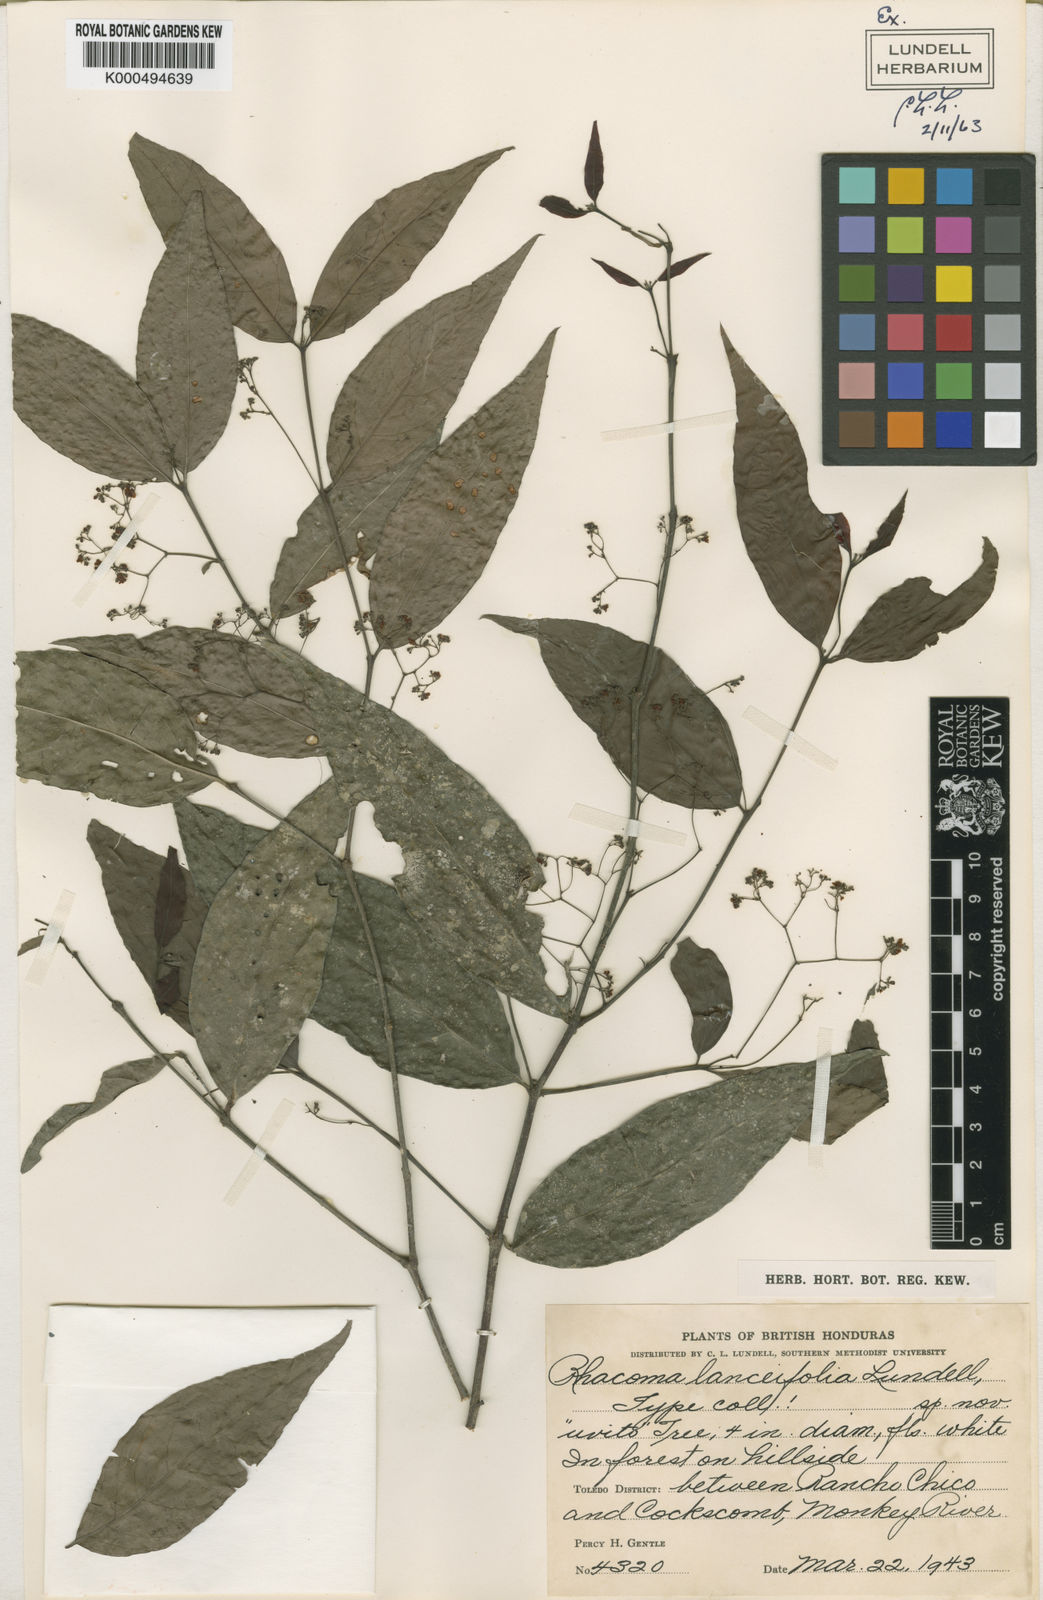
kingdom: Plantae
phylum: Tracheophyta
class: Magnoliopsida
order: Celastrales
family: Celastraceae
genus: Crossopetalum
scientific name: Crossopetalum parviflorum
